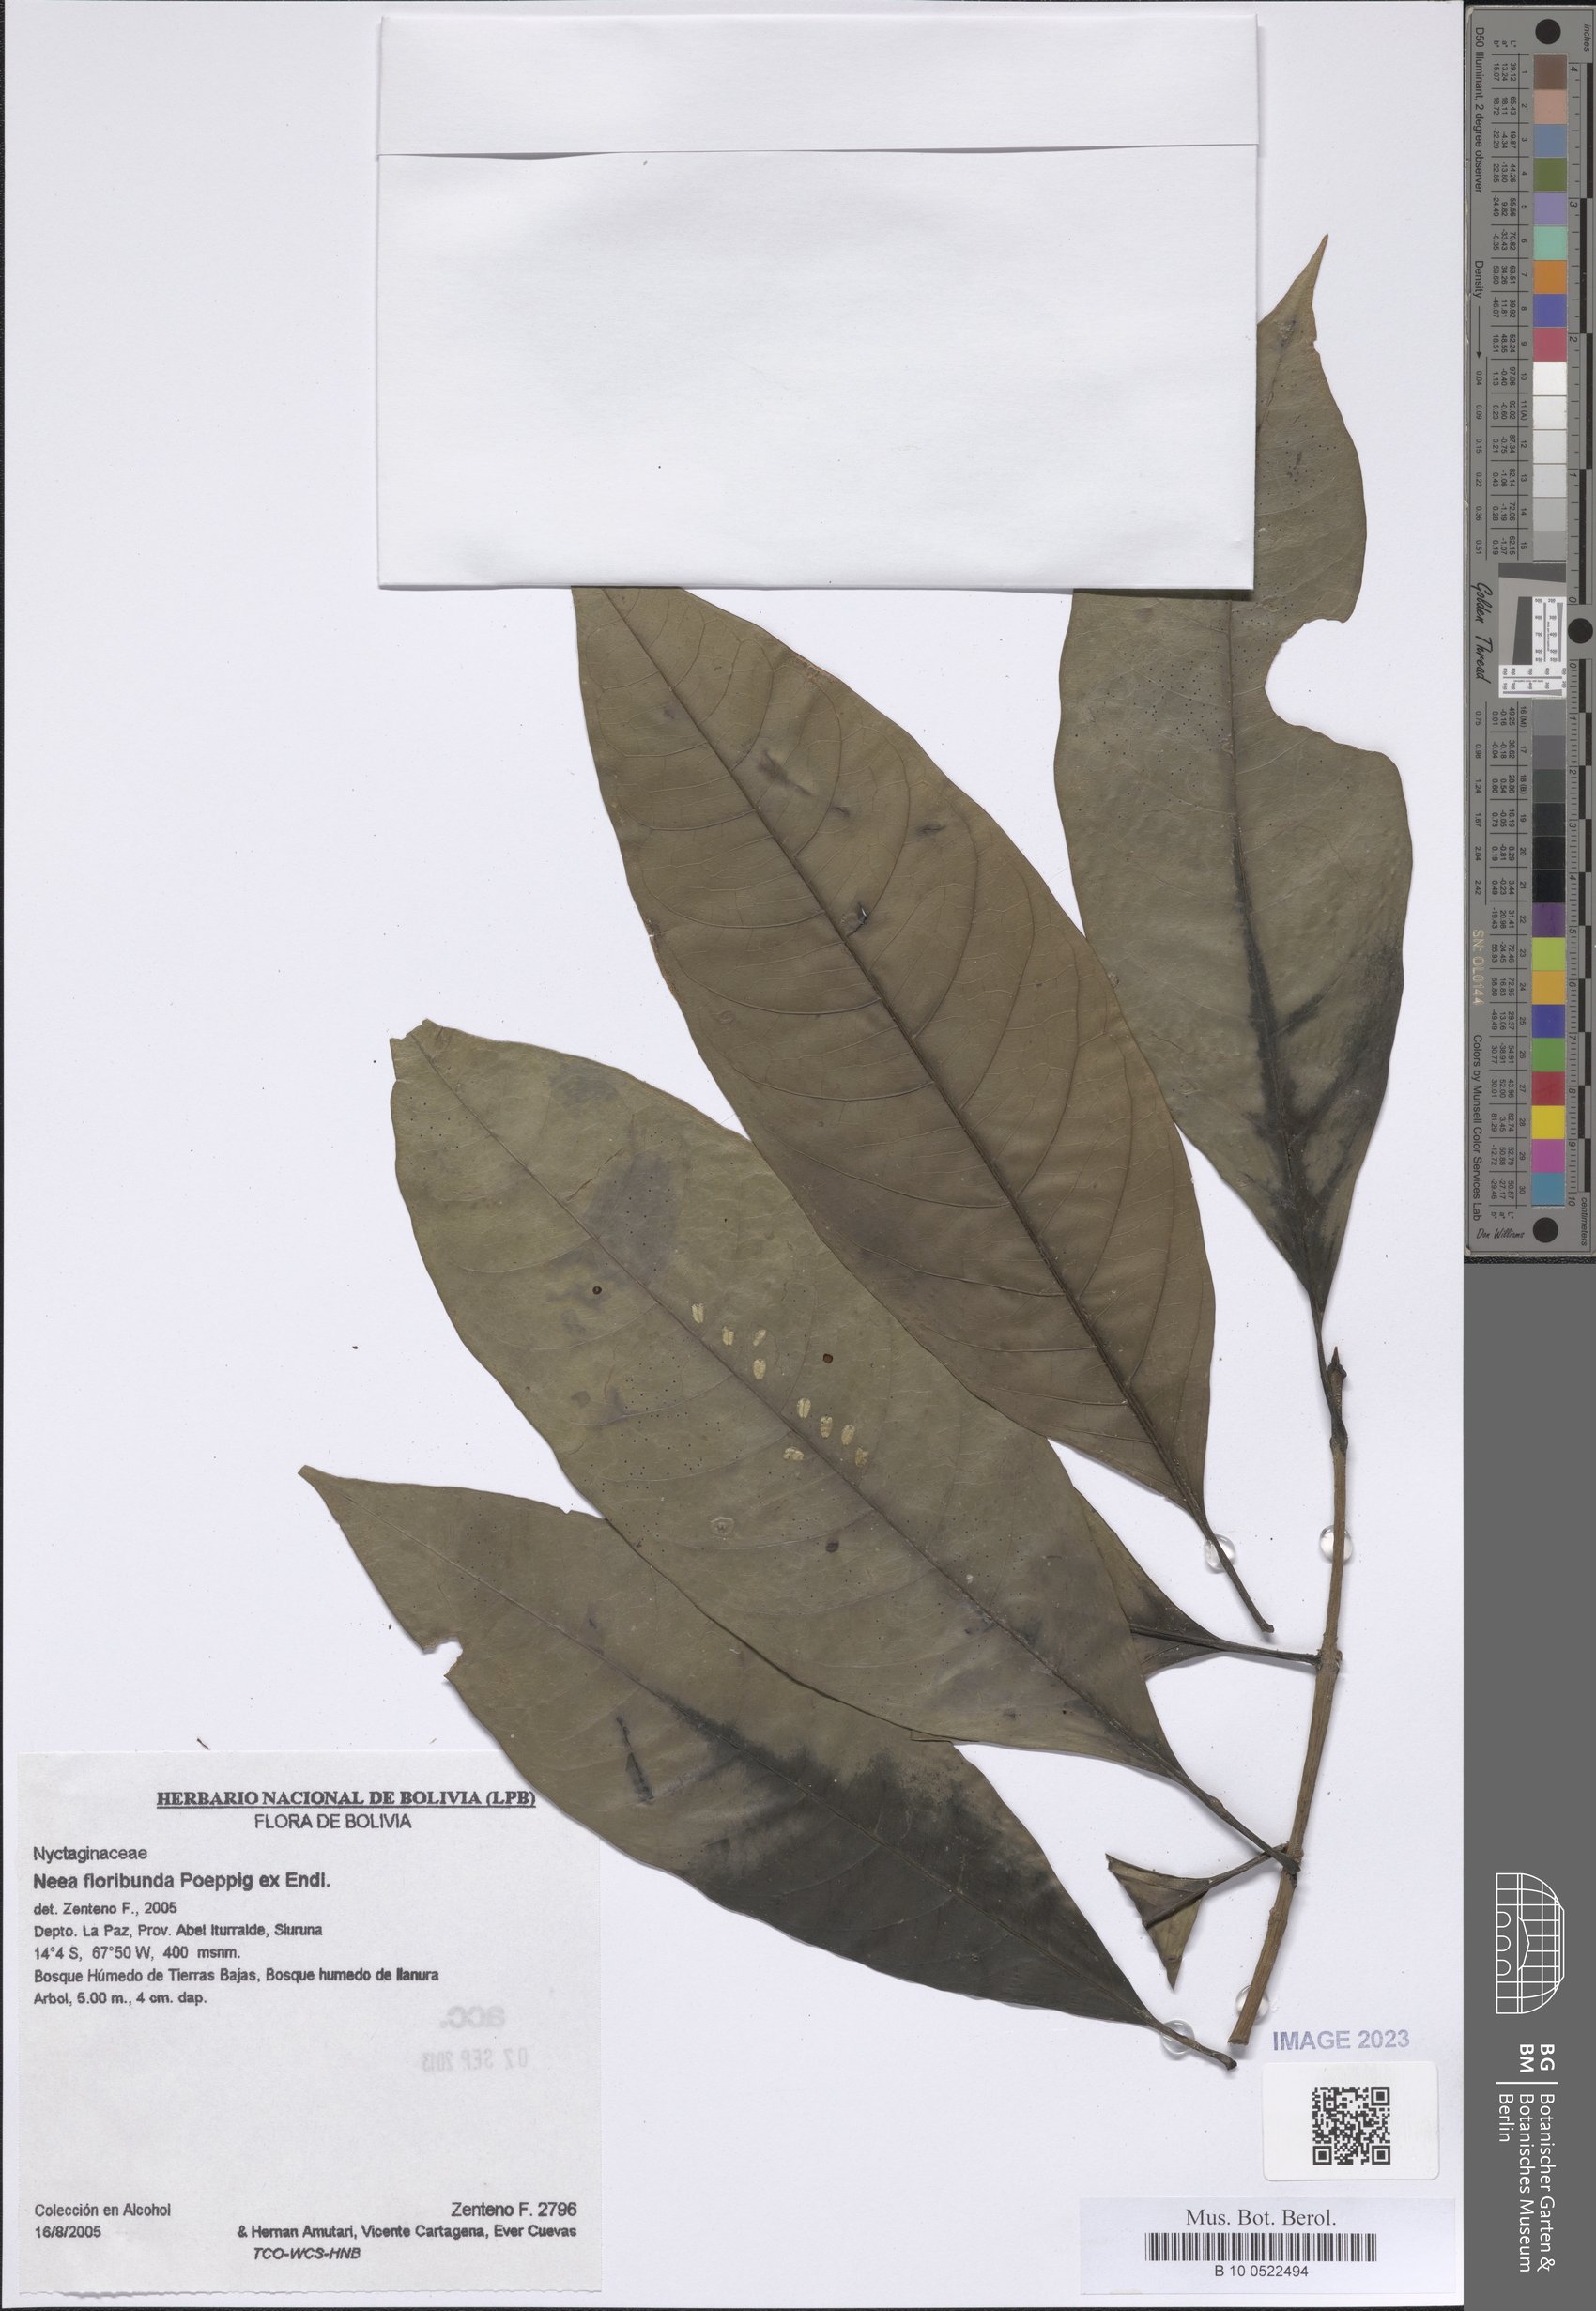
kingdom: Plantae
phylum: Tracheophyta
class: Magnoliopsida
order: Caryophyllales
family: Nyctaginaceae
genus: Neea
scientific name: Neea floribunda
